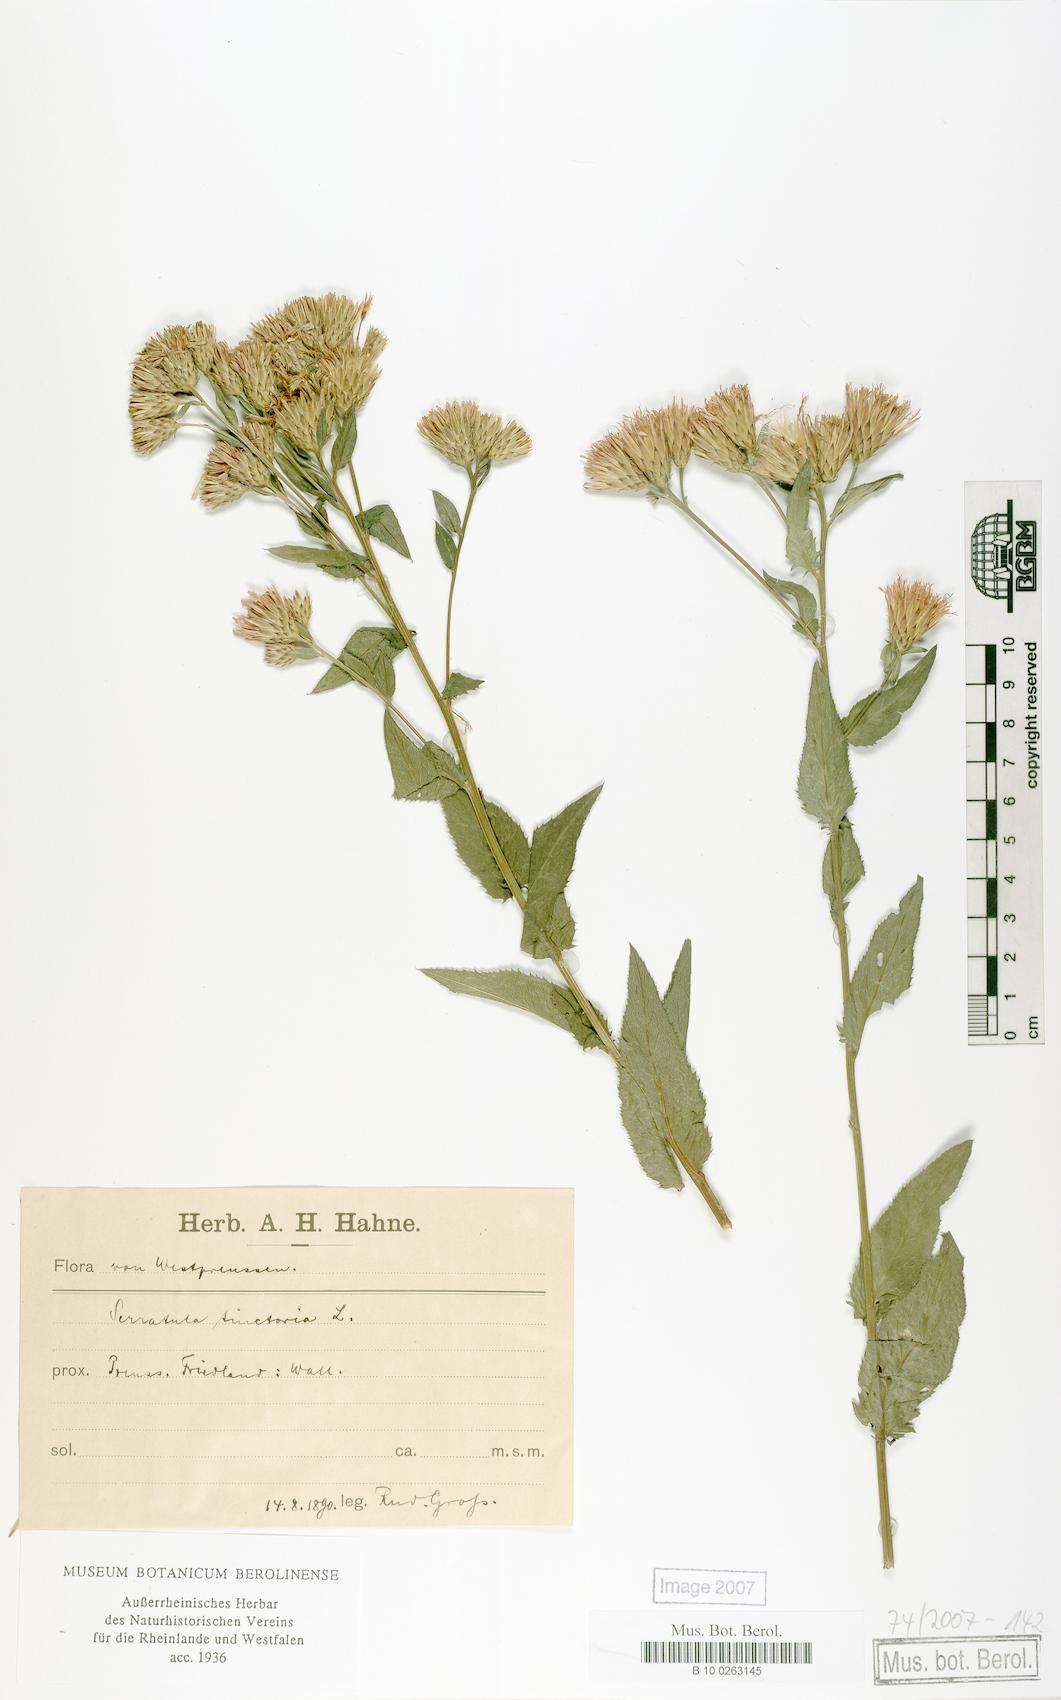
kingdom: Plantae
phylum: Tracheophyta
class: Magnoliopsida
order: Asterales
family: Asteraceae
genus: Serratula
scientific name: Serratula tinctoria
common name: Saw-wort
